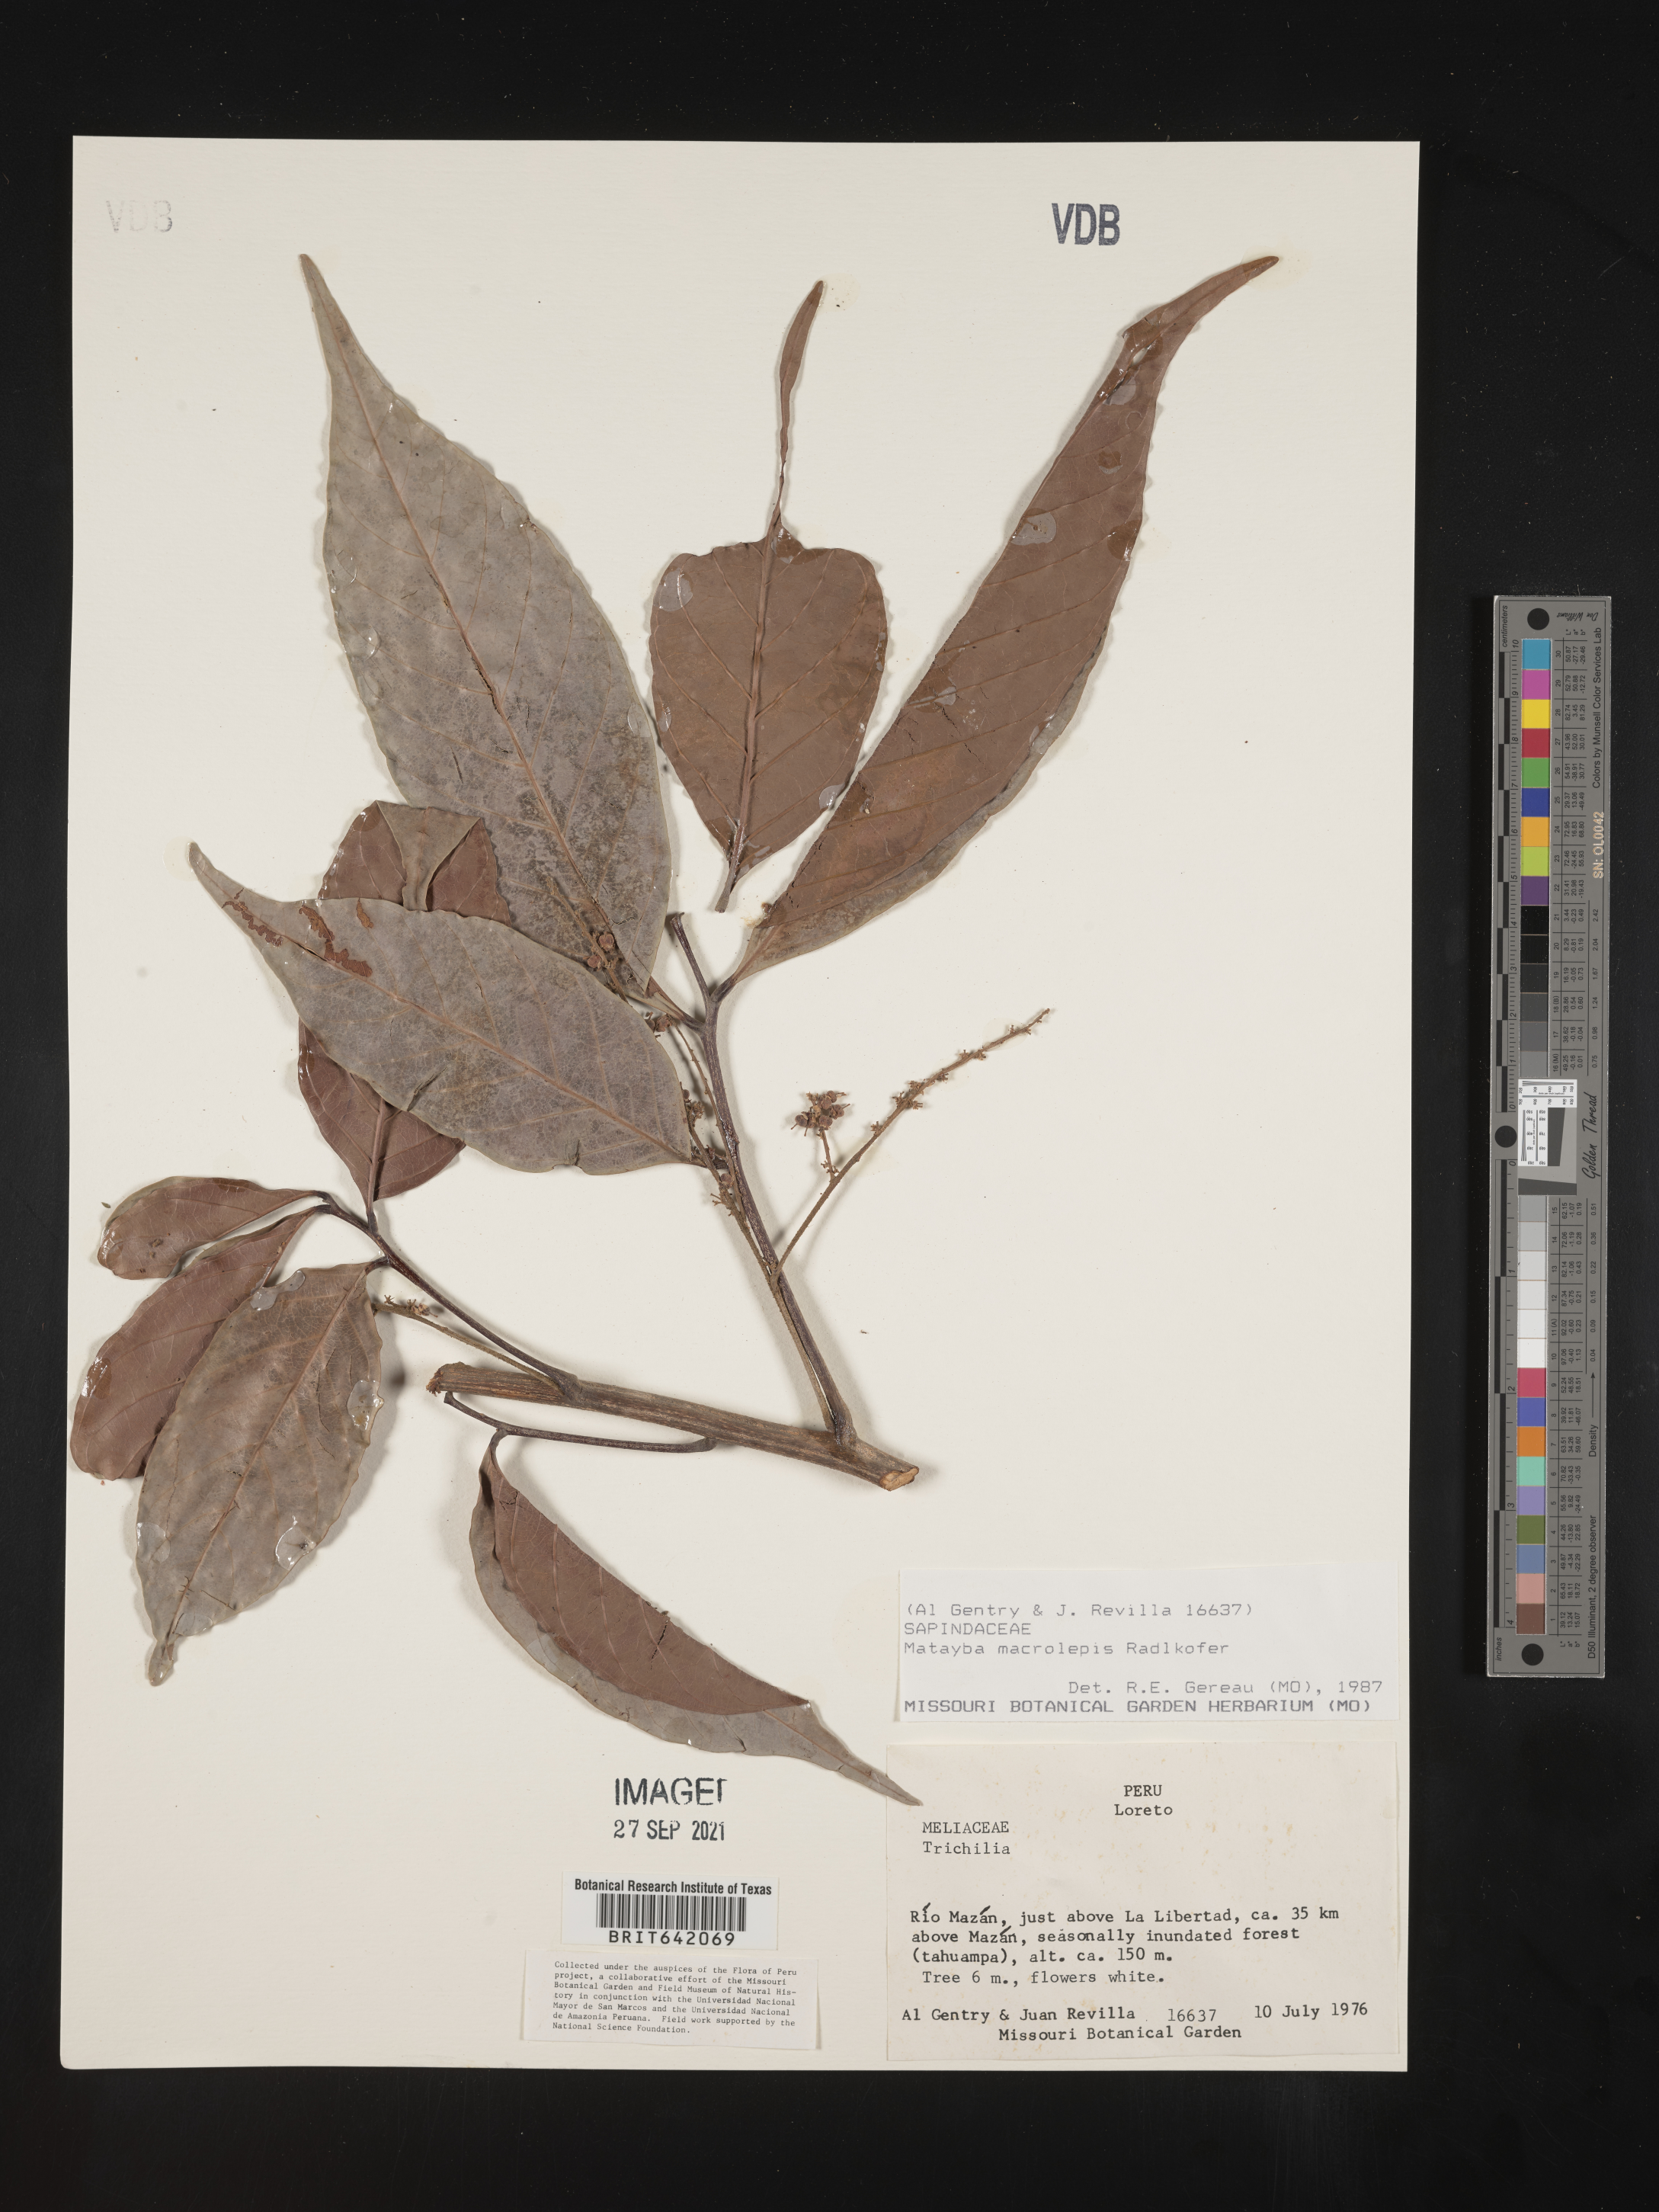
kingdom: Plantae
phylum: Tracheophyta
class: Magnoliopsida
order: Sapindales
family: Sapindaceae
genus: Matayba
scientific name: Matayba
